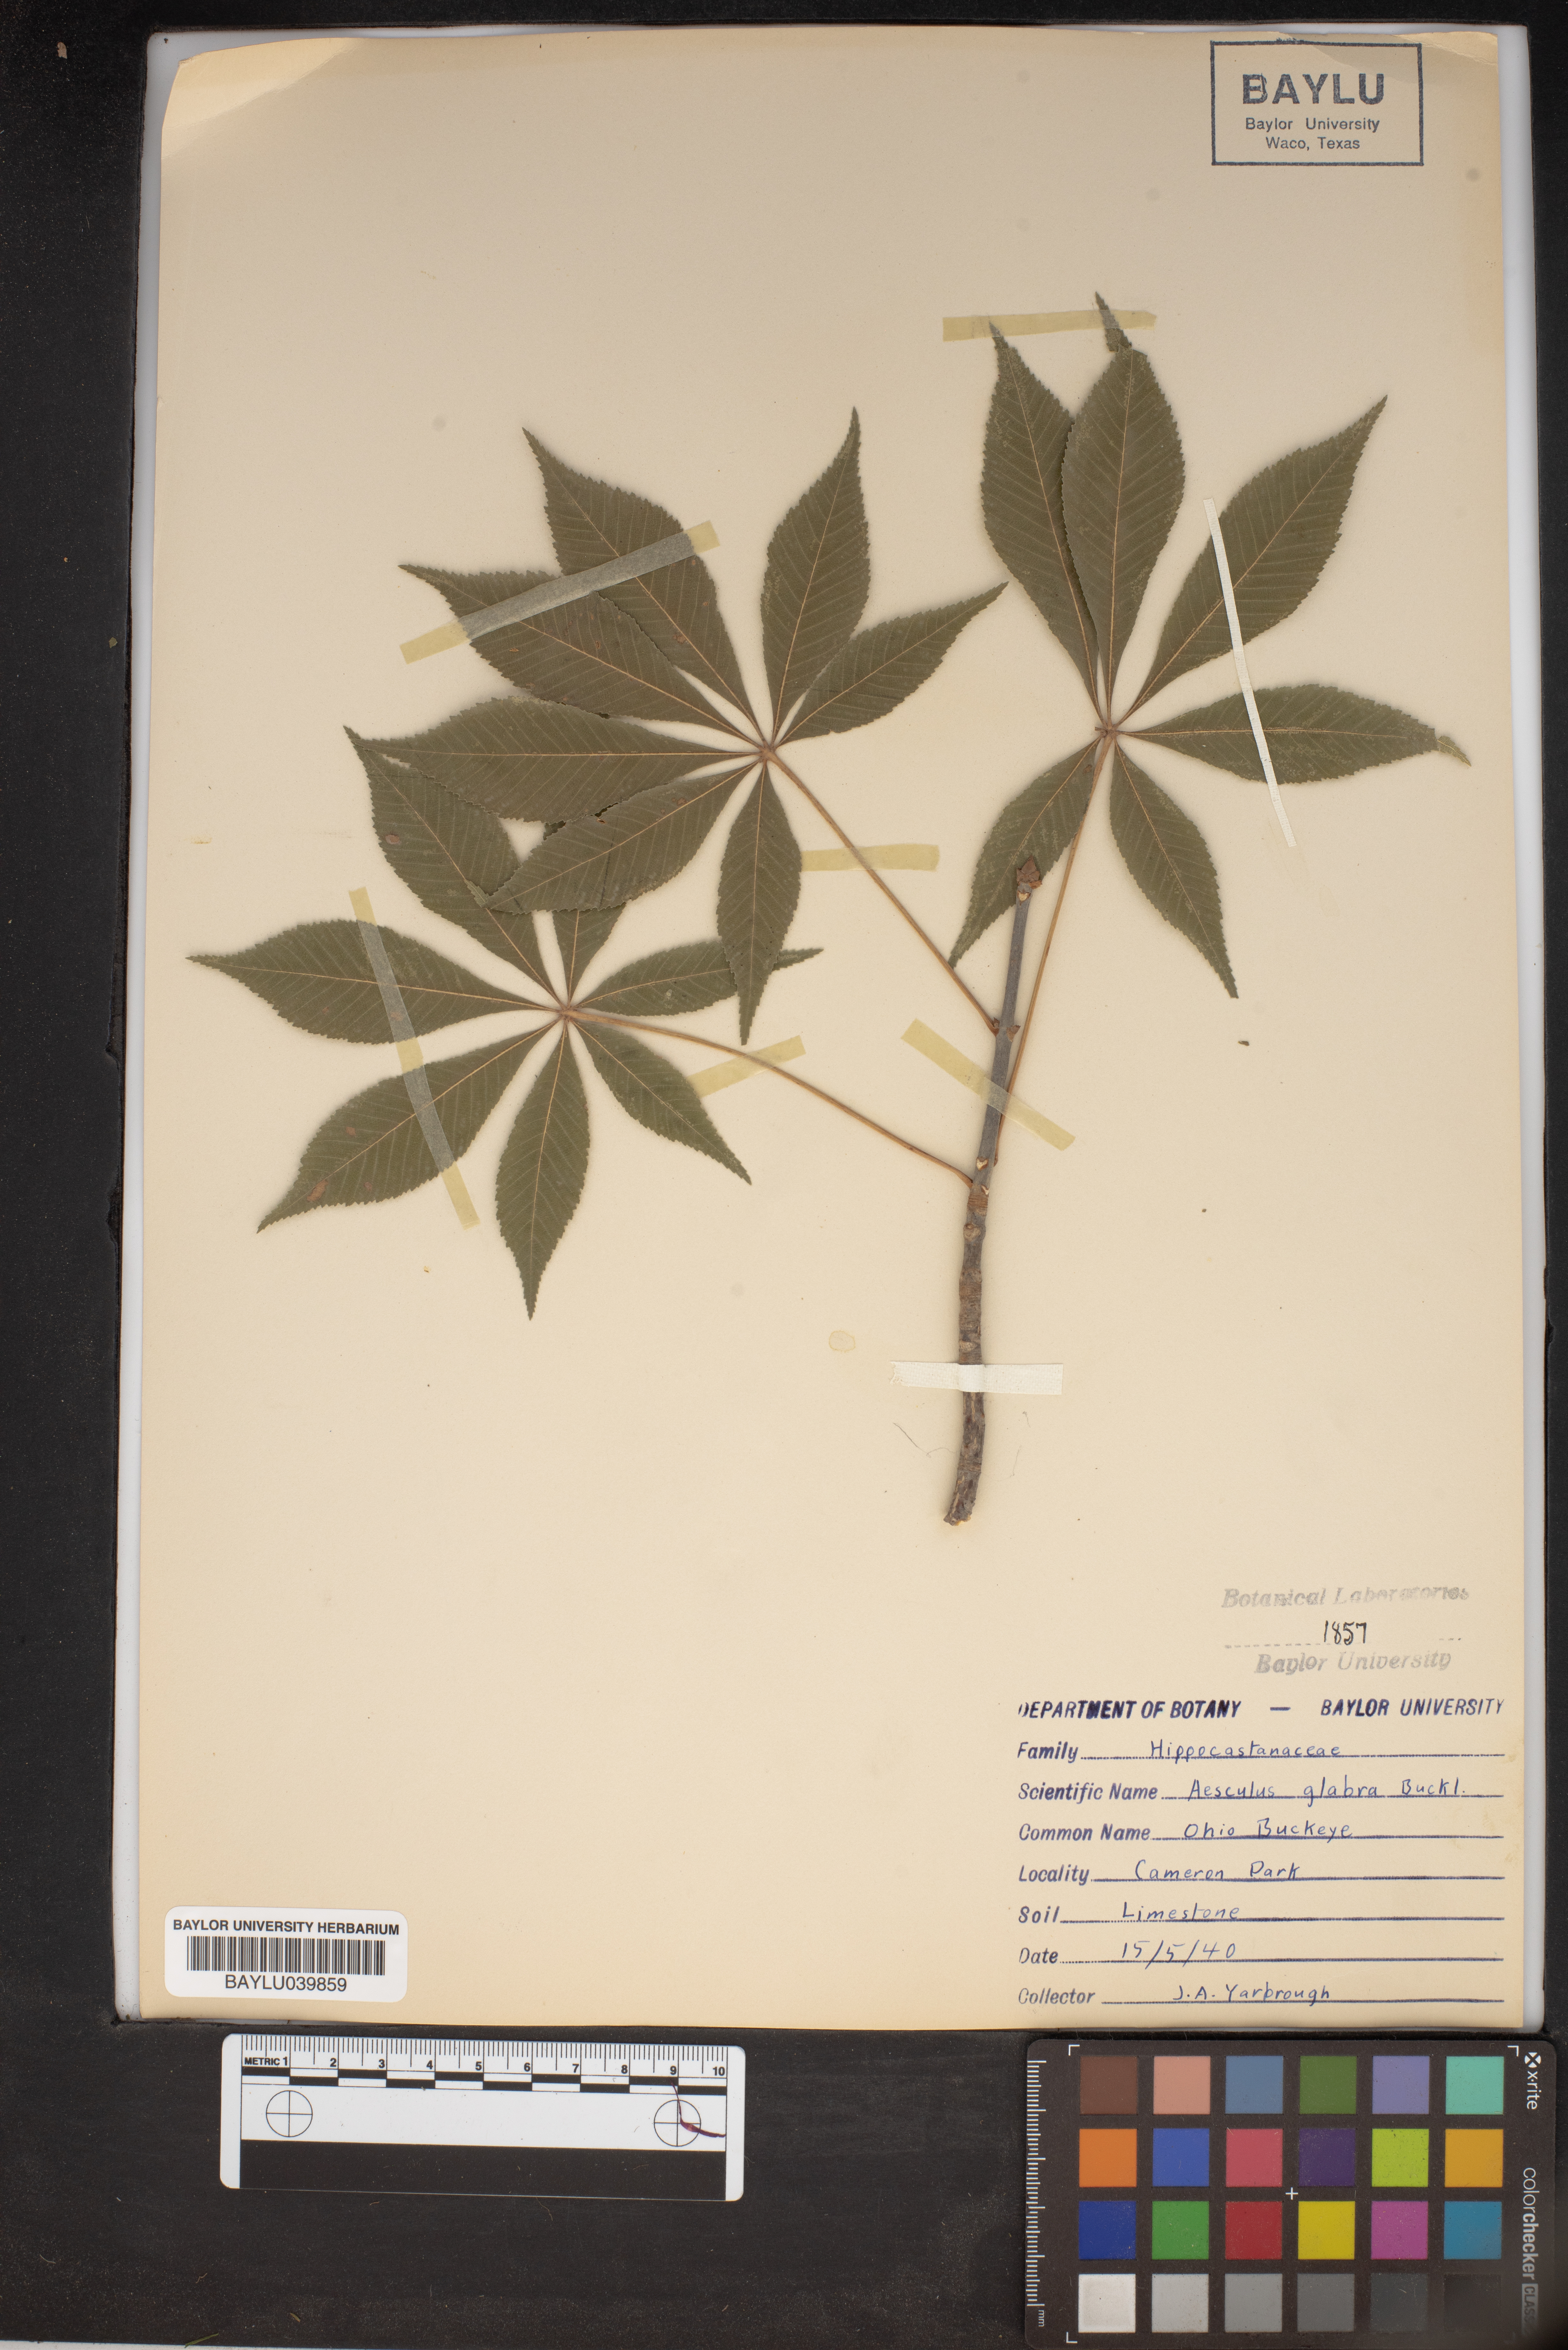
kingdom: Plantae
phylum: Tracheophyta
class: Magnoliopsida
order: Sapindales
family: Sapindaceae
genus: Aesculus
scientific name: Aesculus glabra
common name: Ohio buckeye
